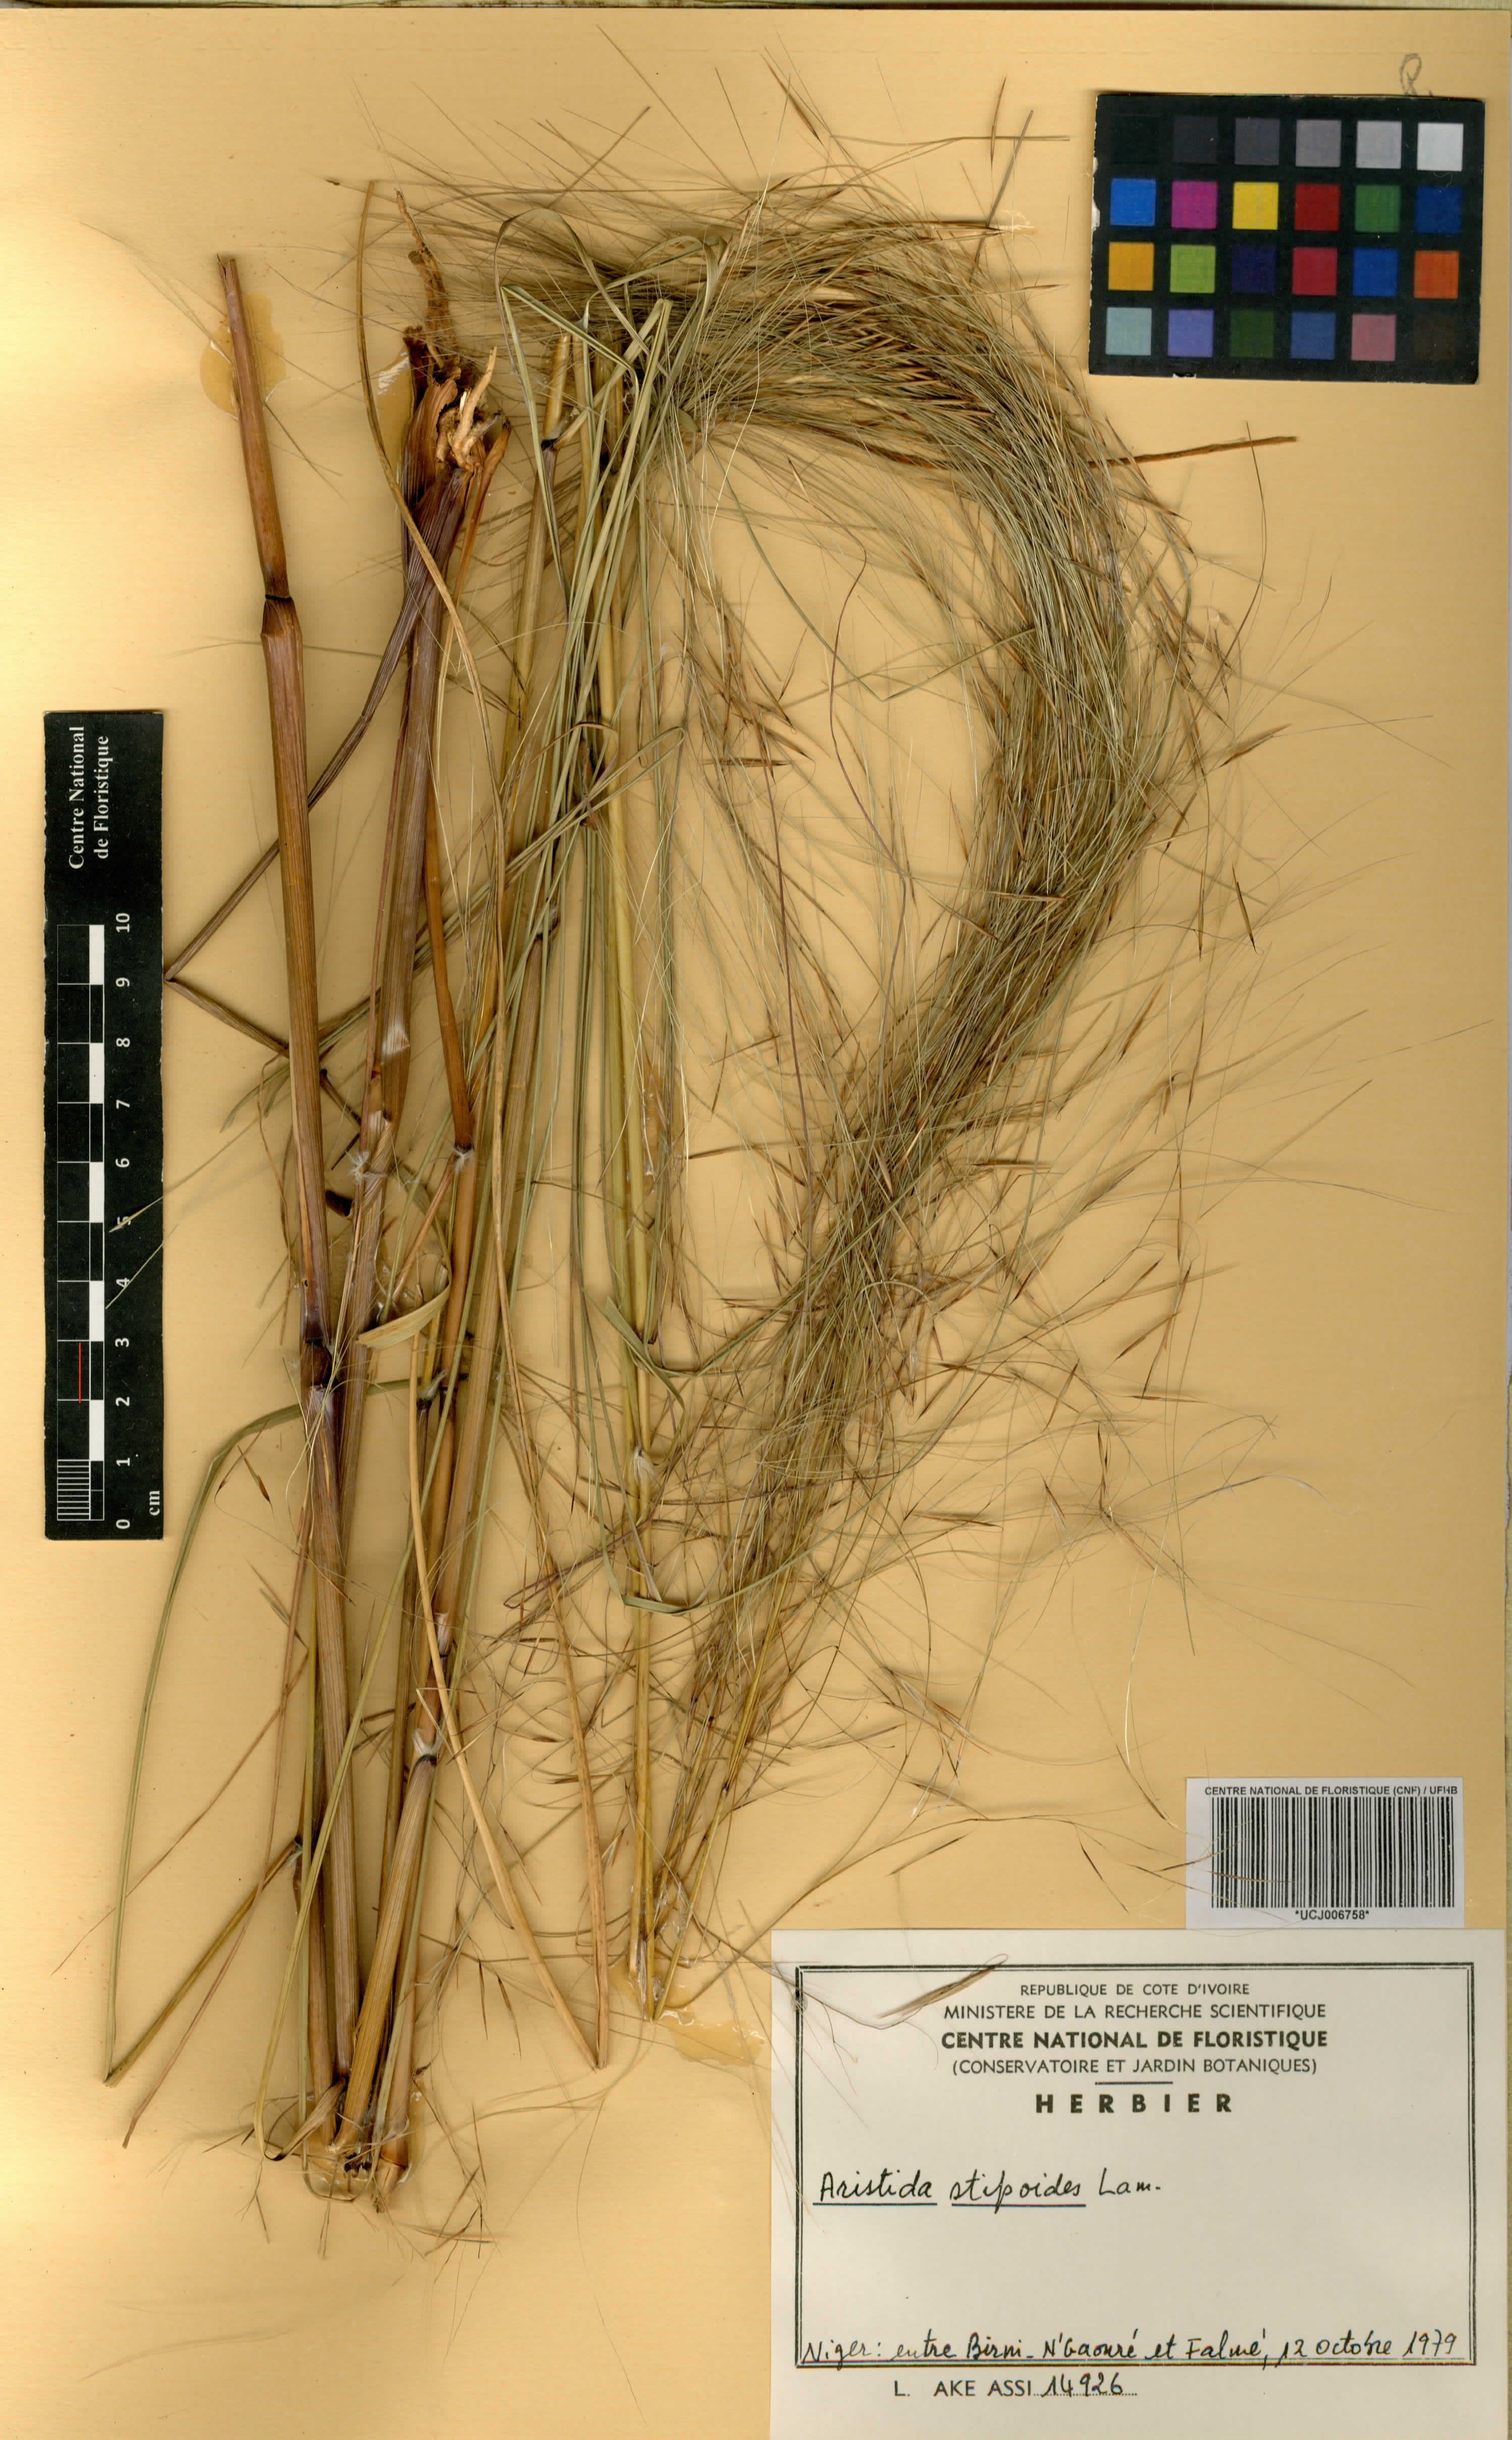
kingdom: Plantae
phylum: Tracheophyta
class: Liliopsida
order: Poales
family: Poaceae
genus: Aristida
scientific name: Aristida stipoides
